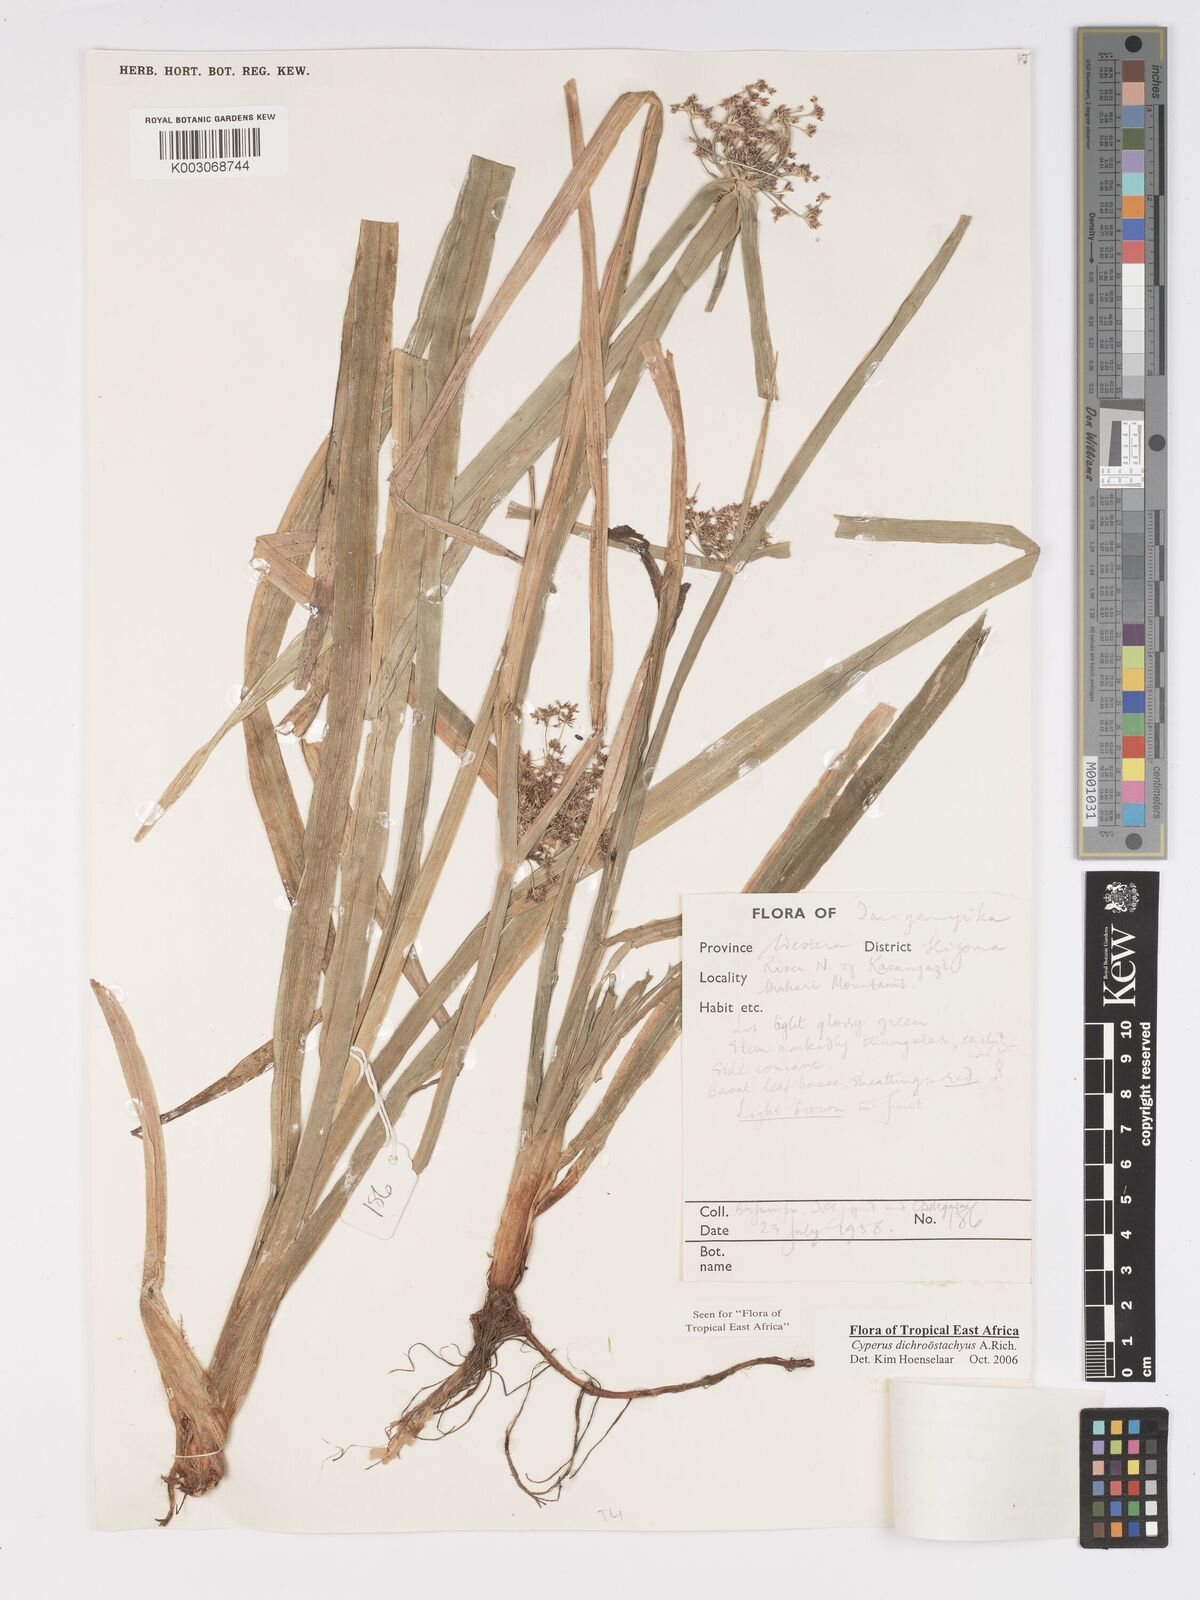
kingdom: Plantae
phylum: Tracheophyta
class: Liliopsida
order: Poales
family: Cyperaceae
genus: Cyperus
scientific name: Cyperus dichrostachyus
